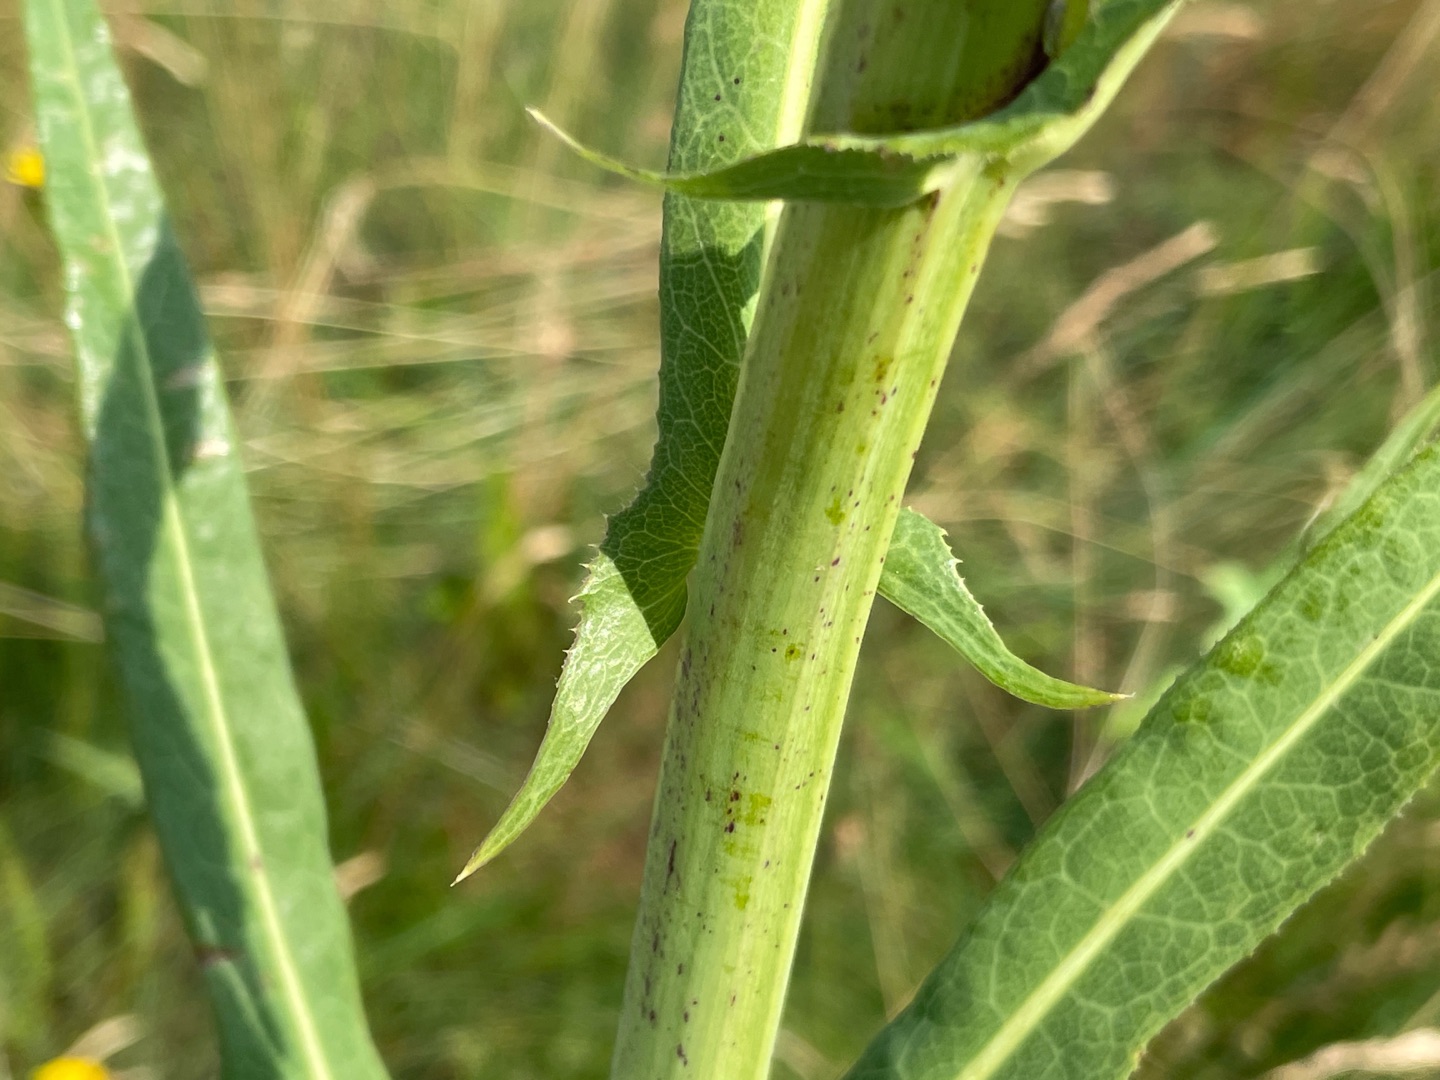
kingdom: Plantae
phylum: Tracheophyta
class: Magnoliopsida
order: Asterales
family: Asteraceae
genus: Sonchus
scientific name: Sonchus palustris
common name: Kær-svinemælk
